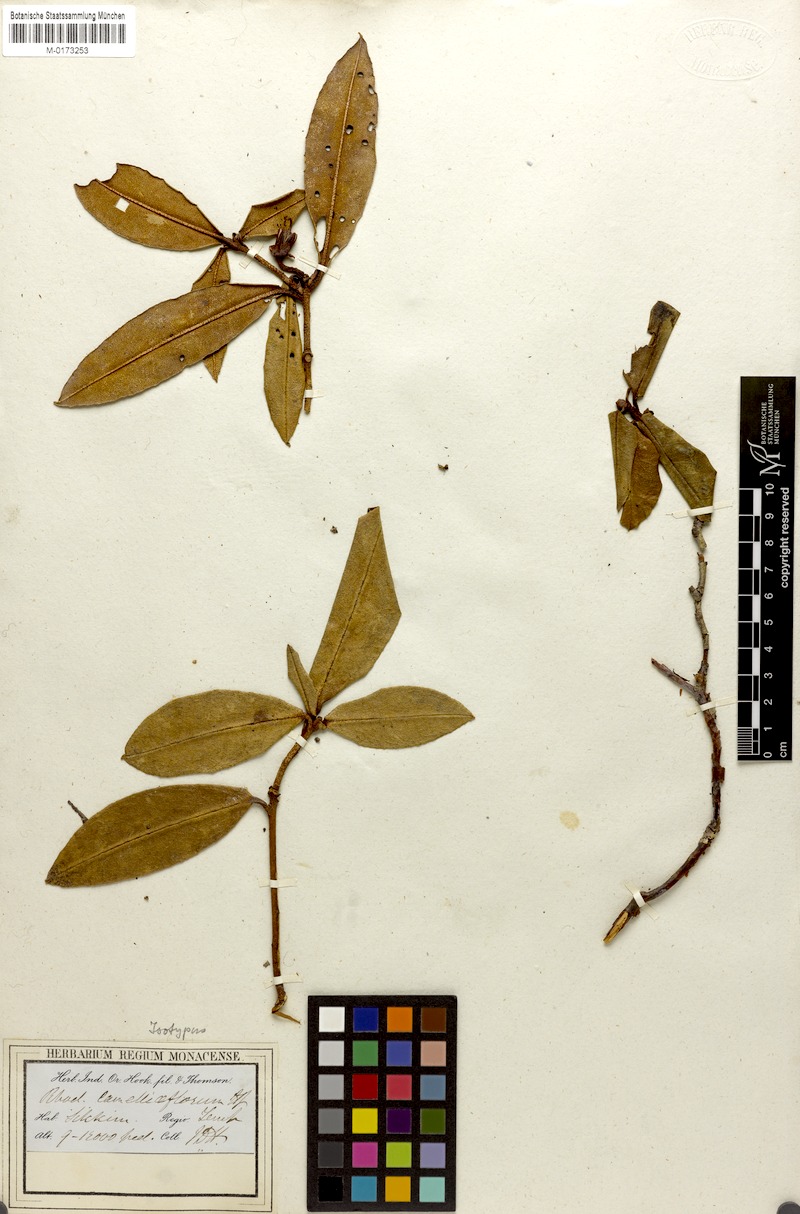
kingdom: Plantae
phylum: Tracheophyta
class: Magnoliopsida
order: Ericales
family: Ericaceae
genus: Rhododendron
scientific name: Rhododendron camelliiflorum
